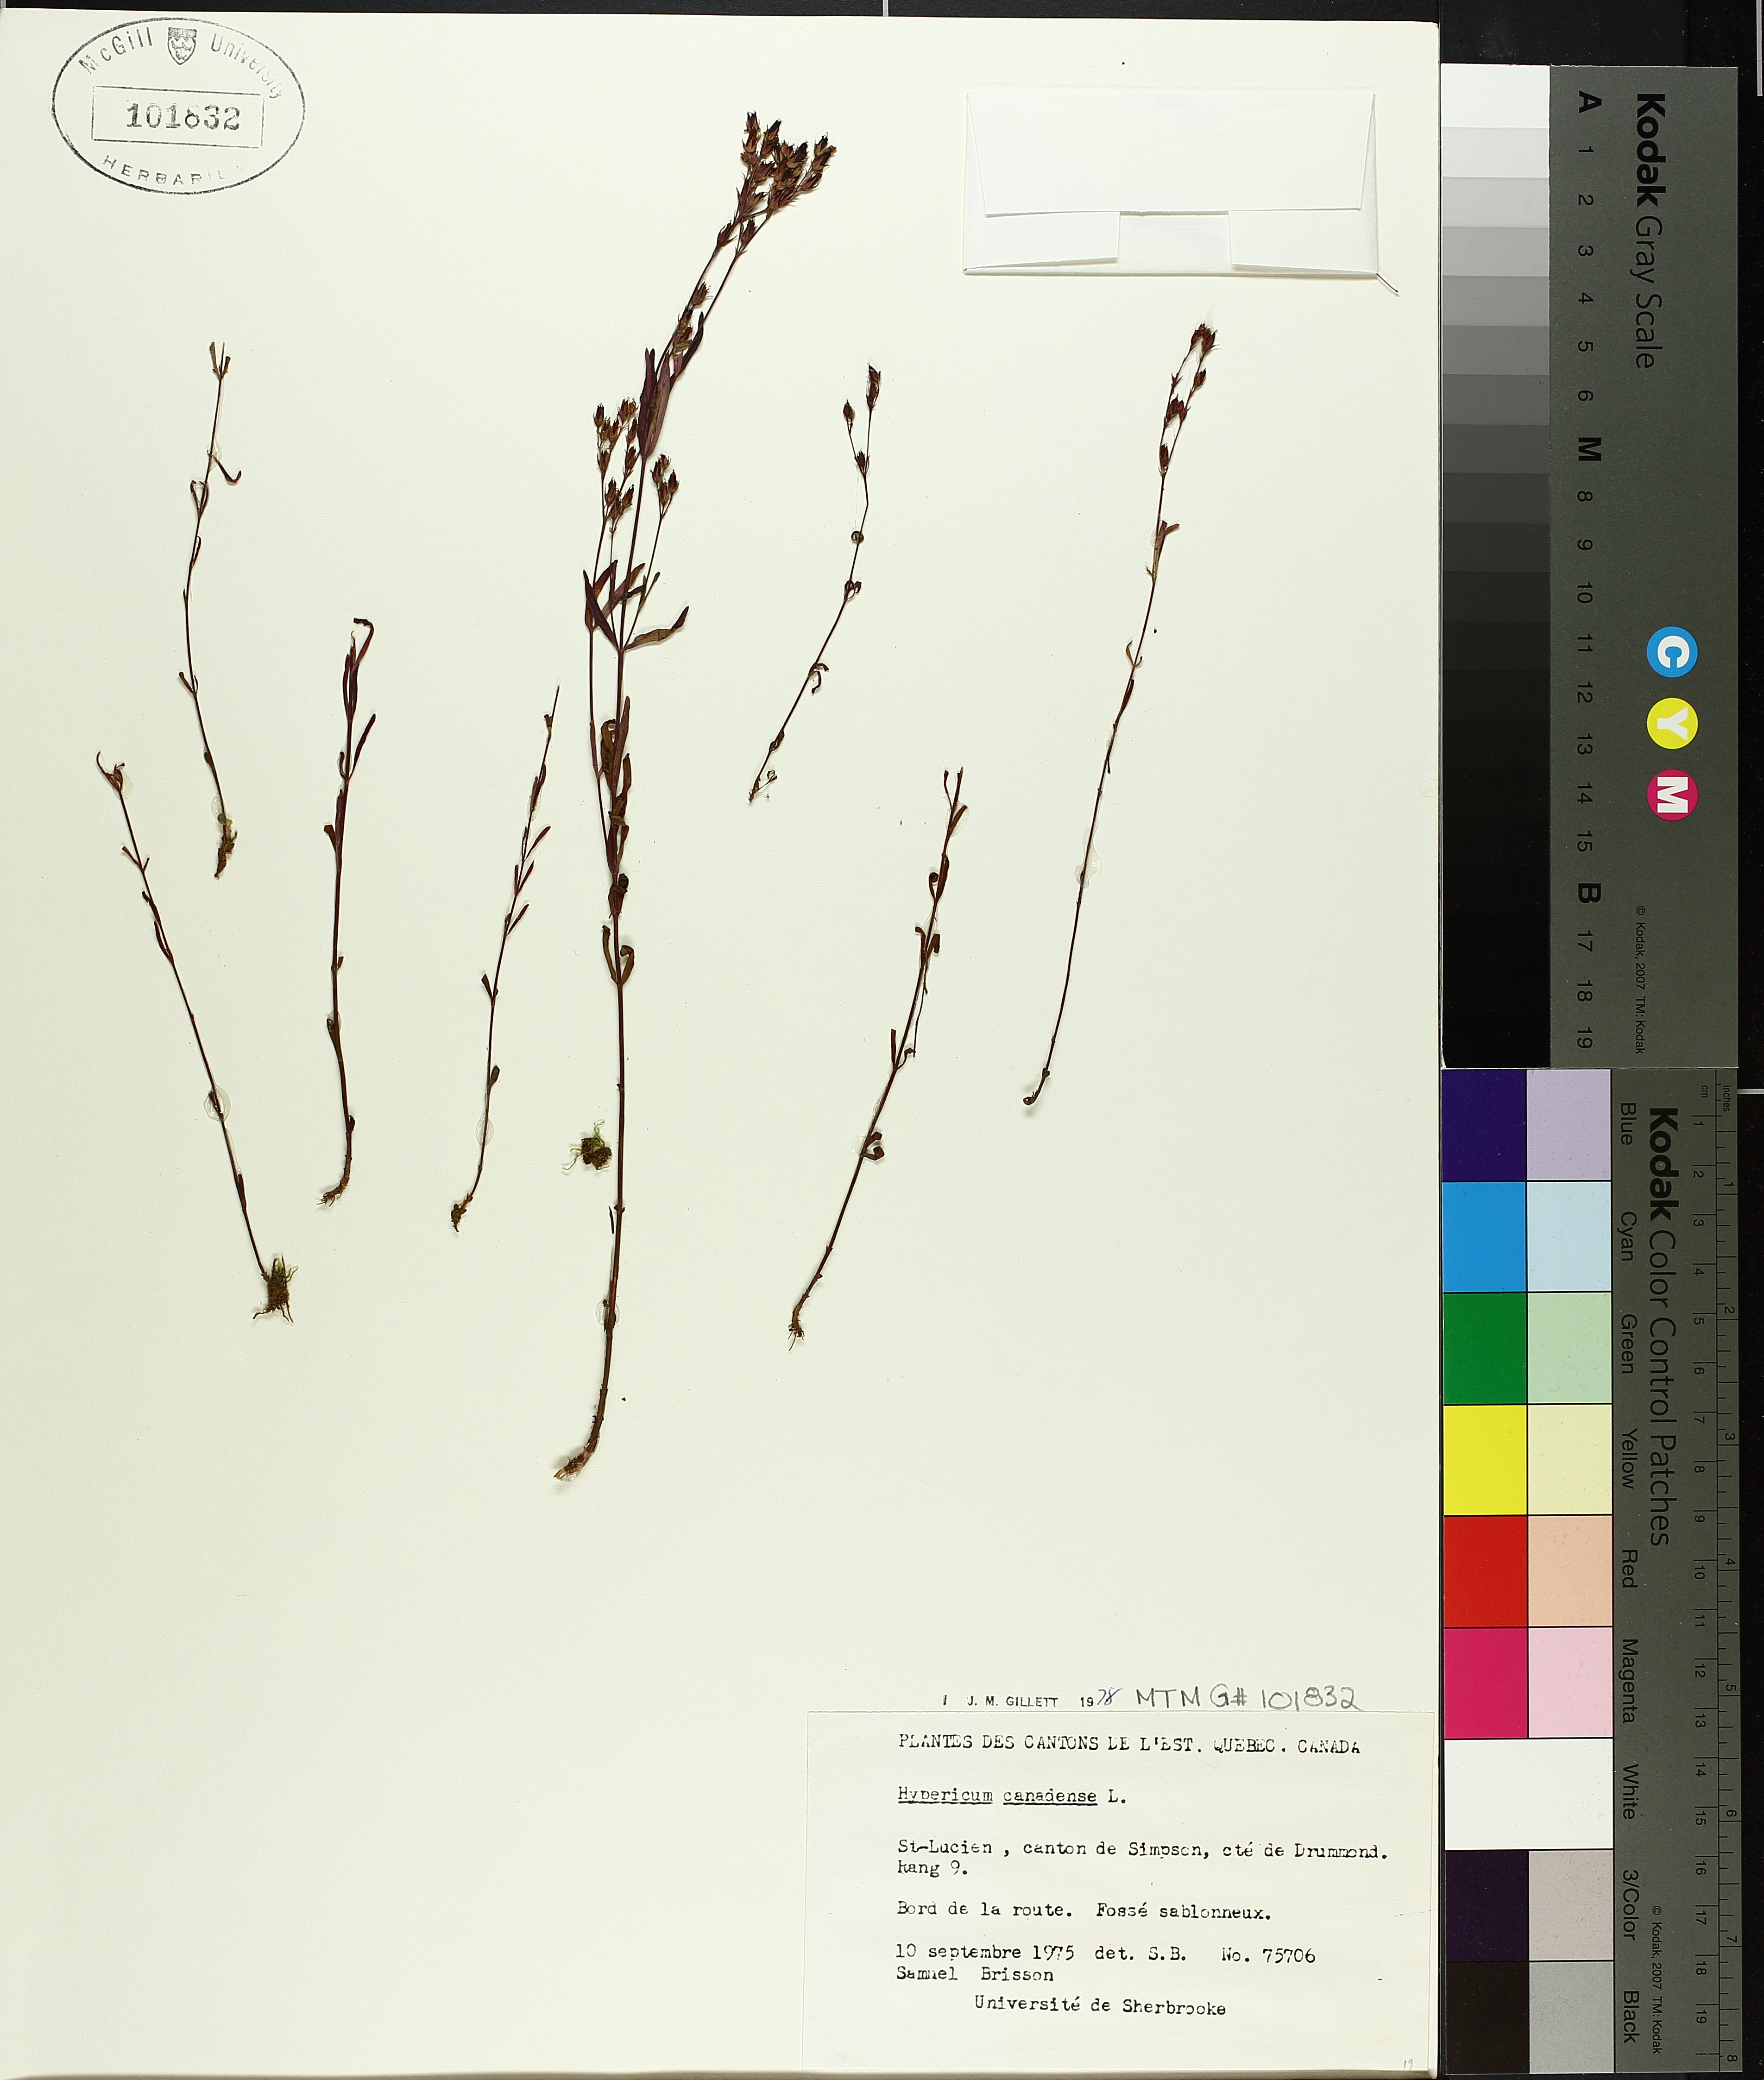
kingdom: Plantae
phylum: Tracheophyta
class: Magnoliopsida
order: Malpighiales
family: Hypericaceae
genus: Hypericum
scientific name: Hypericum canadense
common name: Irish st. john's-wort
